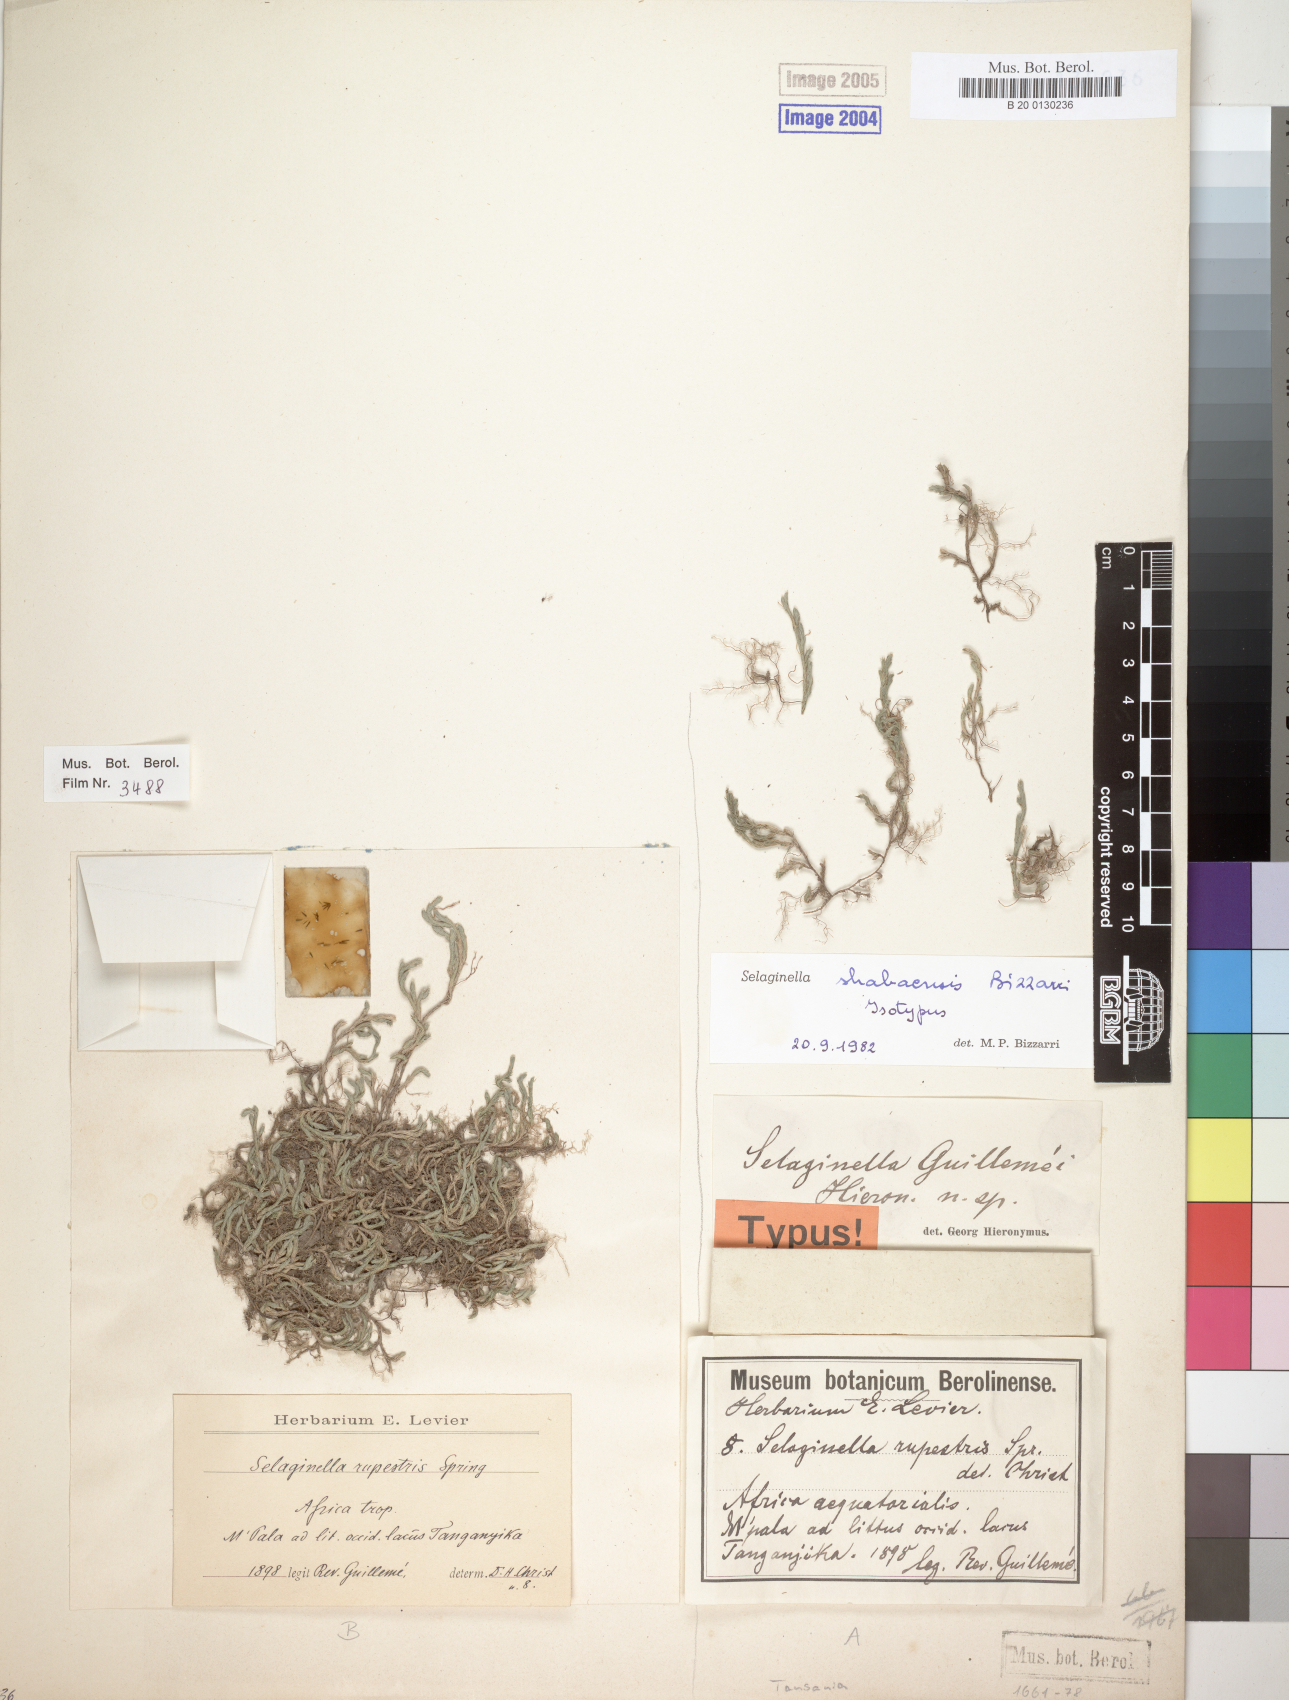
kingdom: Plantae
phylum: Tracheophyta
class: Lycopodiopsida
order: Selaginellales
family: Selaginellaceae
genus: Selaginella
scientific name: Selaginella shabaensis
